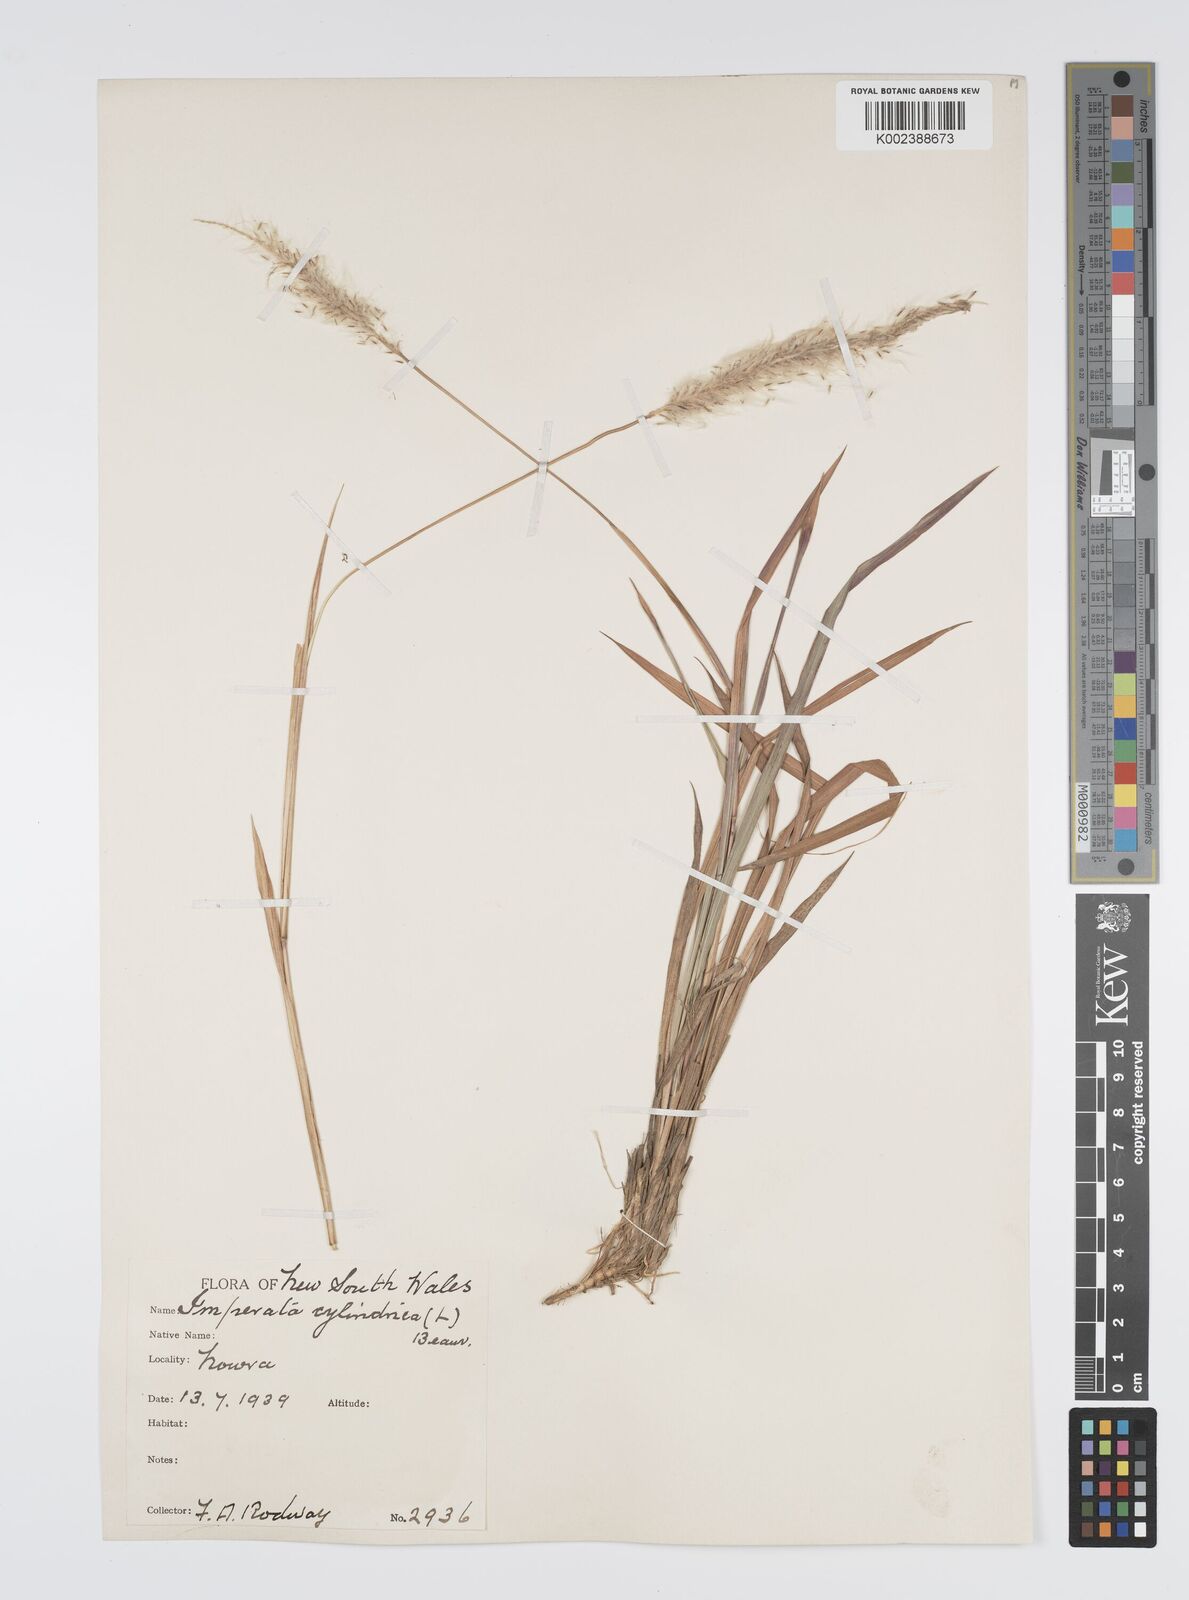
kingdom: Plantae
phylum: Tracheophyta
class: Liliopsida
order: Poales
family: Poaceae
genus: Imperata
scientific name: Imperata cylindrica
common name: Cogongrass
